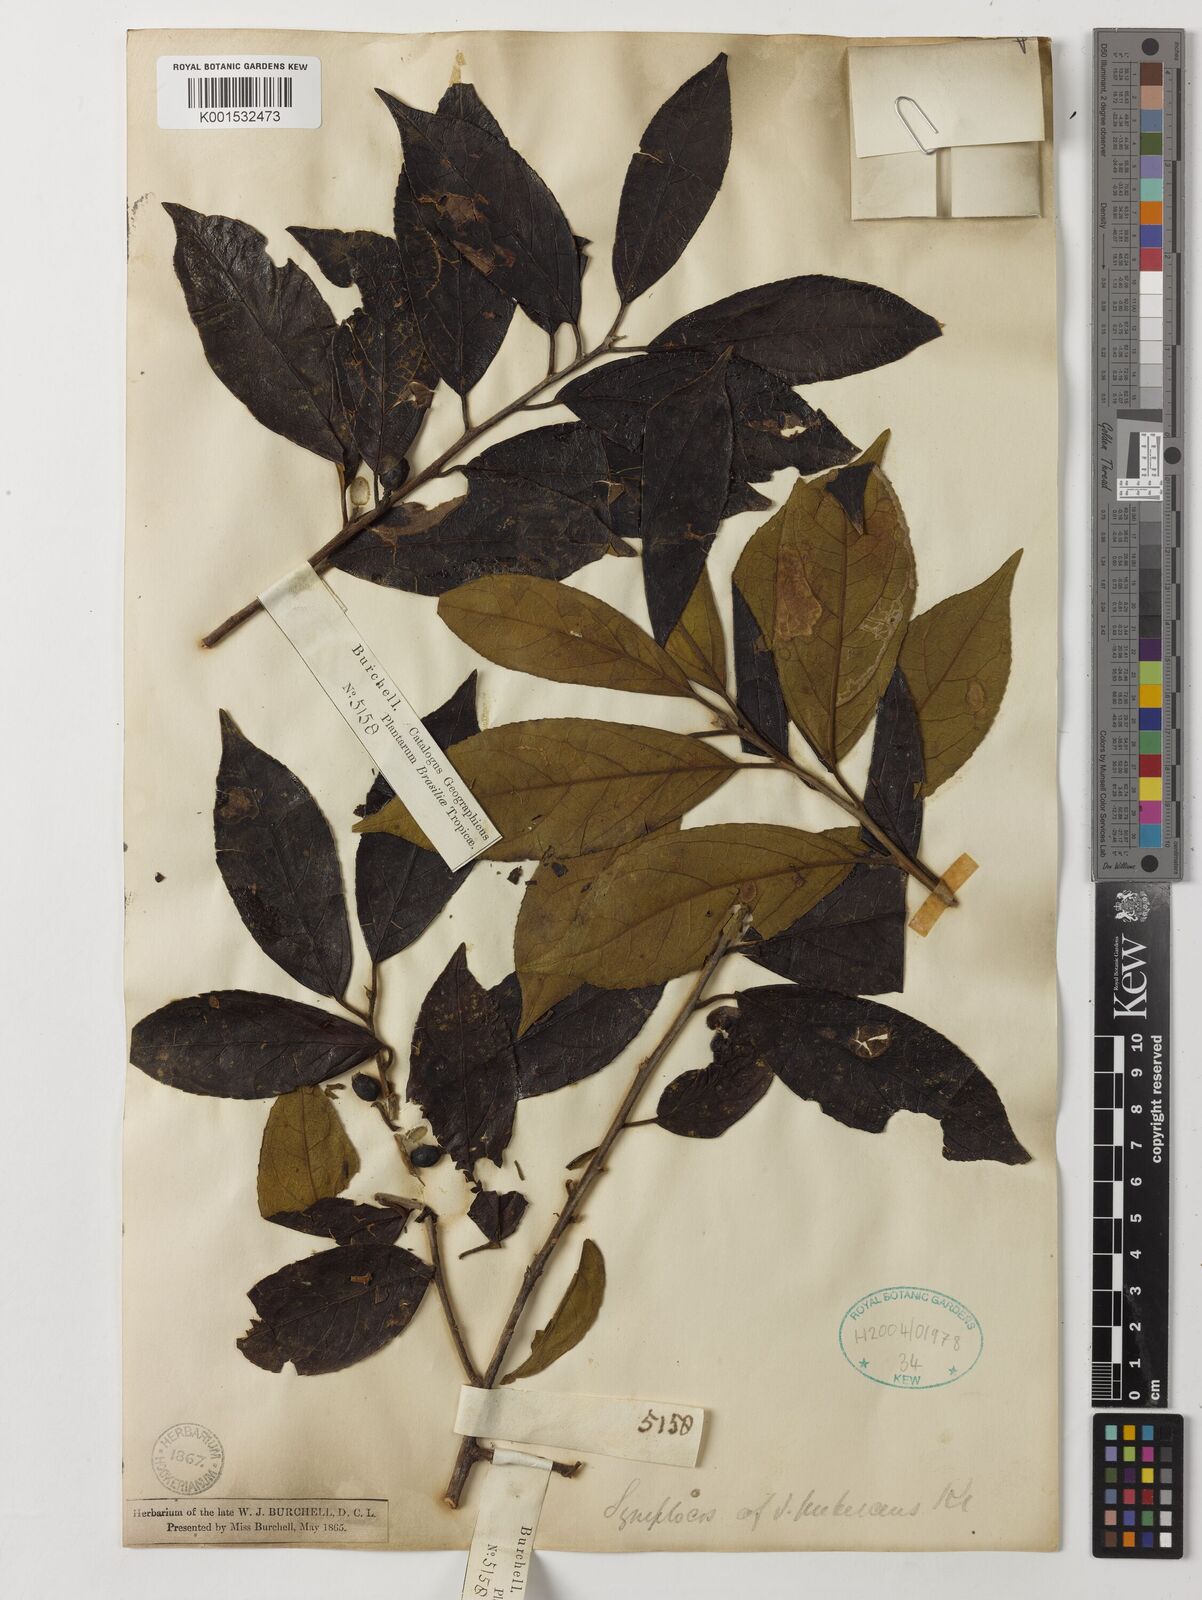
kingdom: Plantae
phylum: Tracheophyta
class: Magnoliopsida
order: Ericales
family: Symplocaceae
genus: Symplocos
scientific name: Symplocos pubescens
